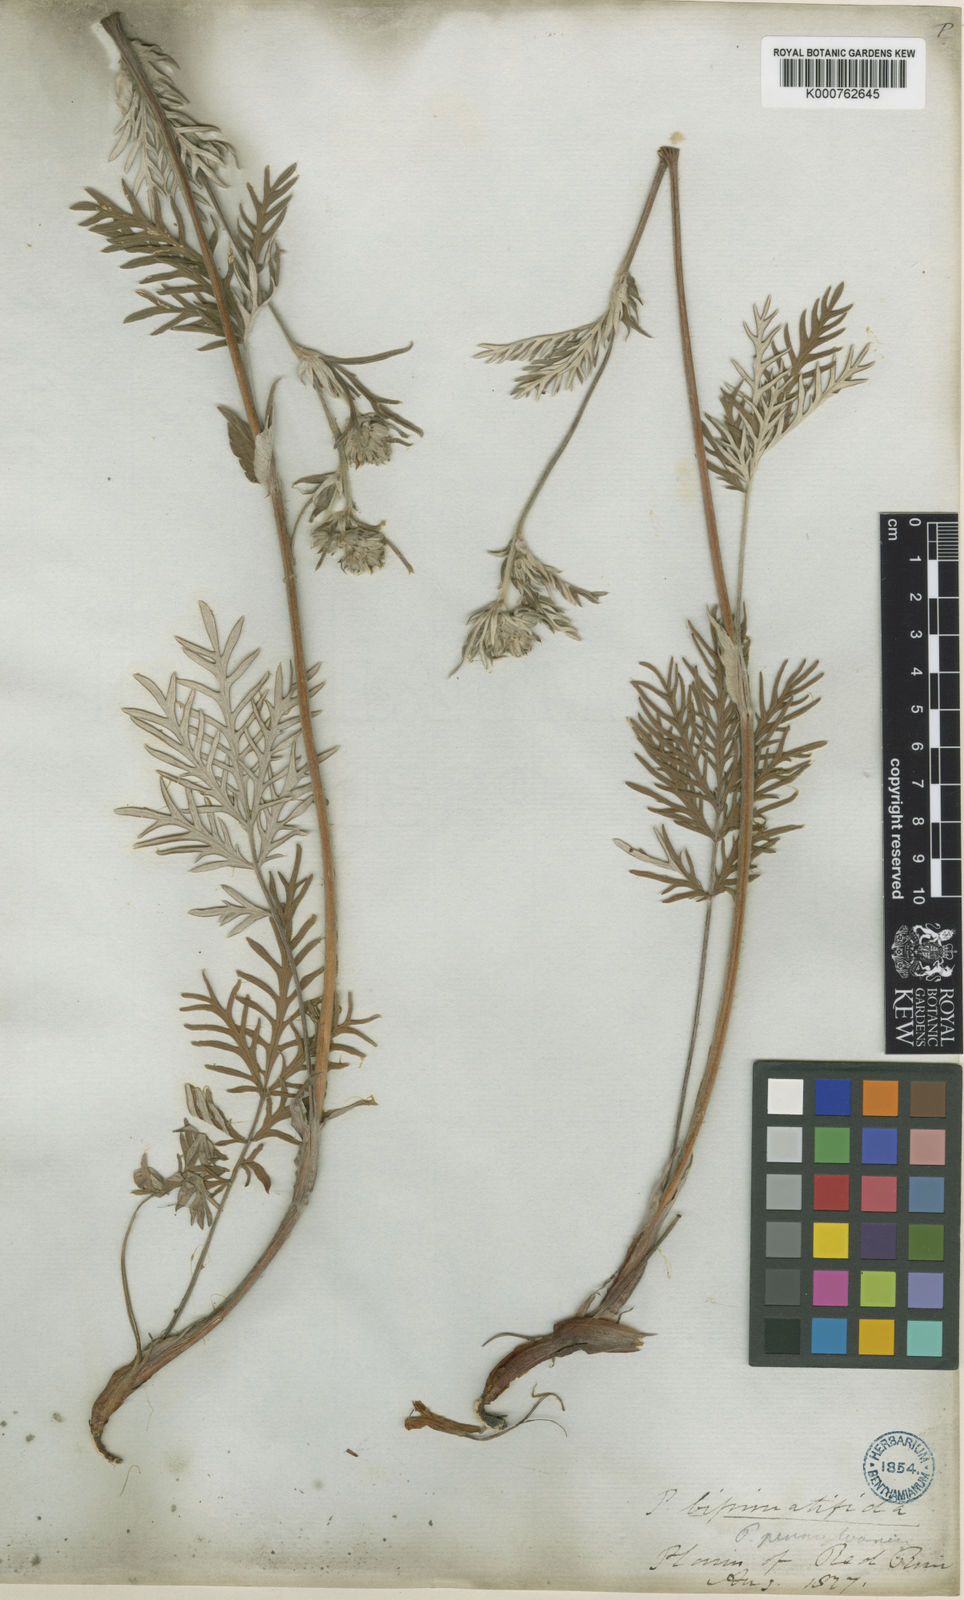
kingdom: Plantae
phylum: Tracheophyta
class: Magnoliopsida
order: Rosales
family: Rosaceae
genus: Potentilla
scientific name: Potentilla
